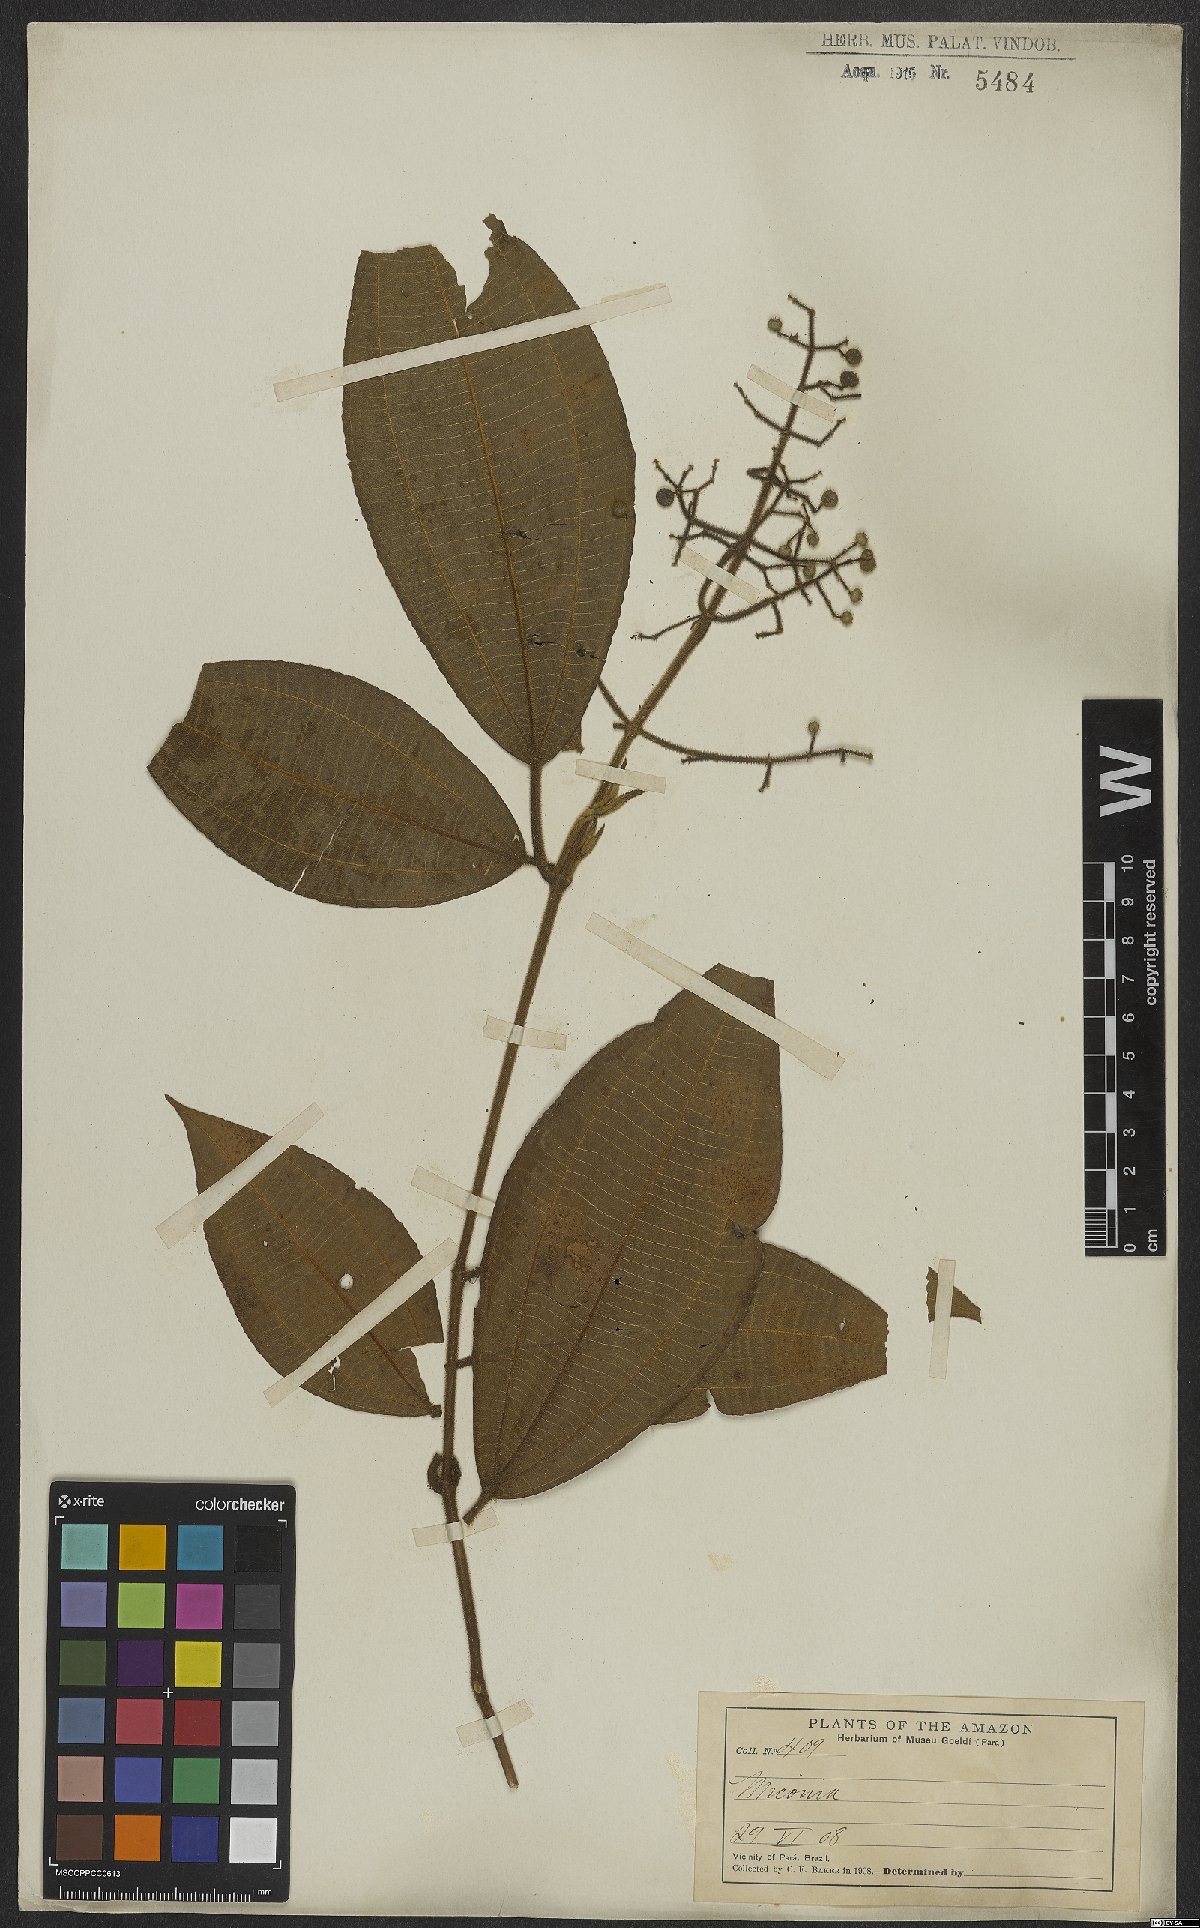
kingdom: Plantae
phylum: Tracheophyta
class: Magnoliopsida
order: Myrtales
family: Melastomataceae
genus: Miconia
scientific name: Miconia
